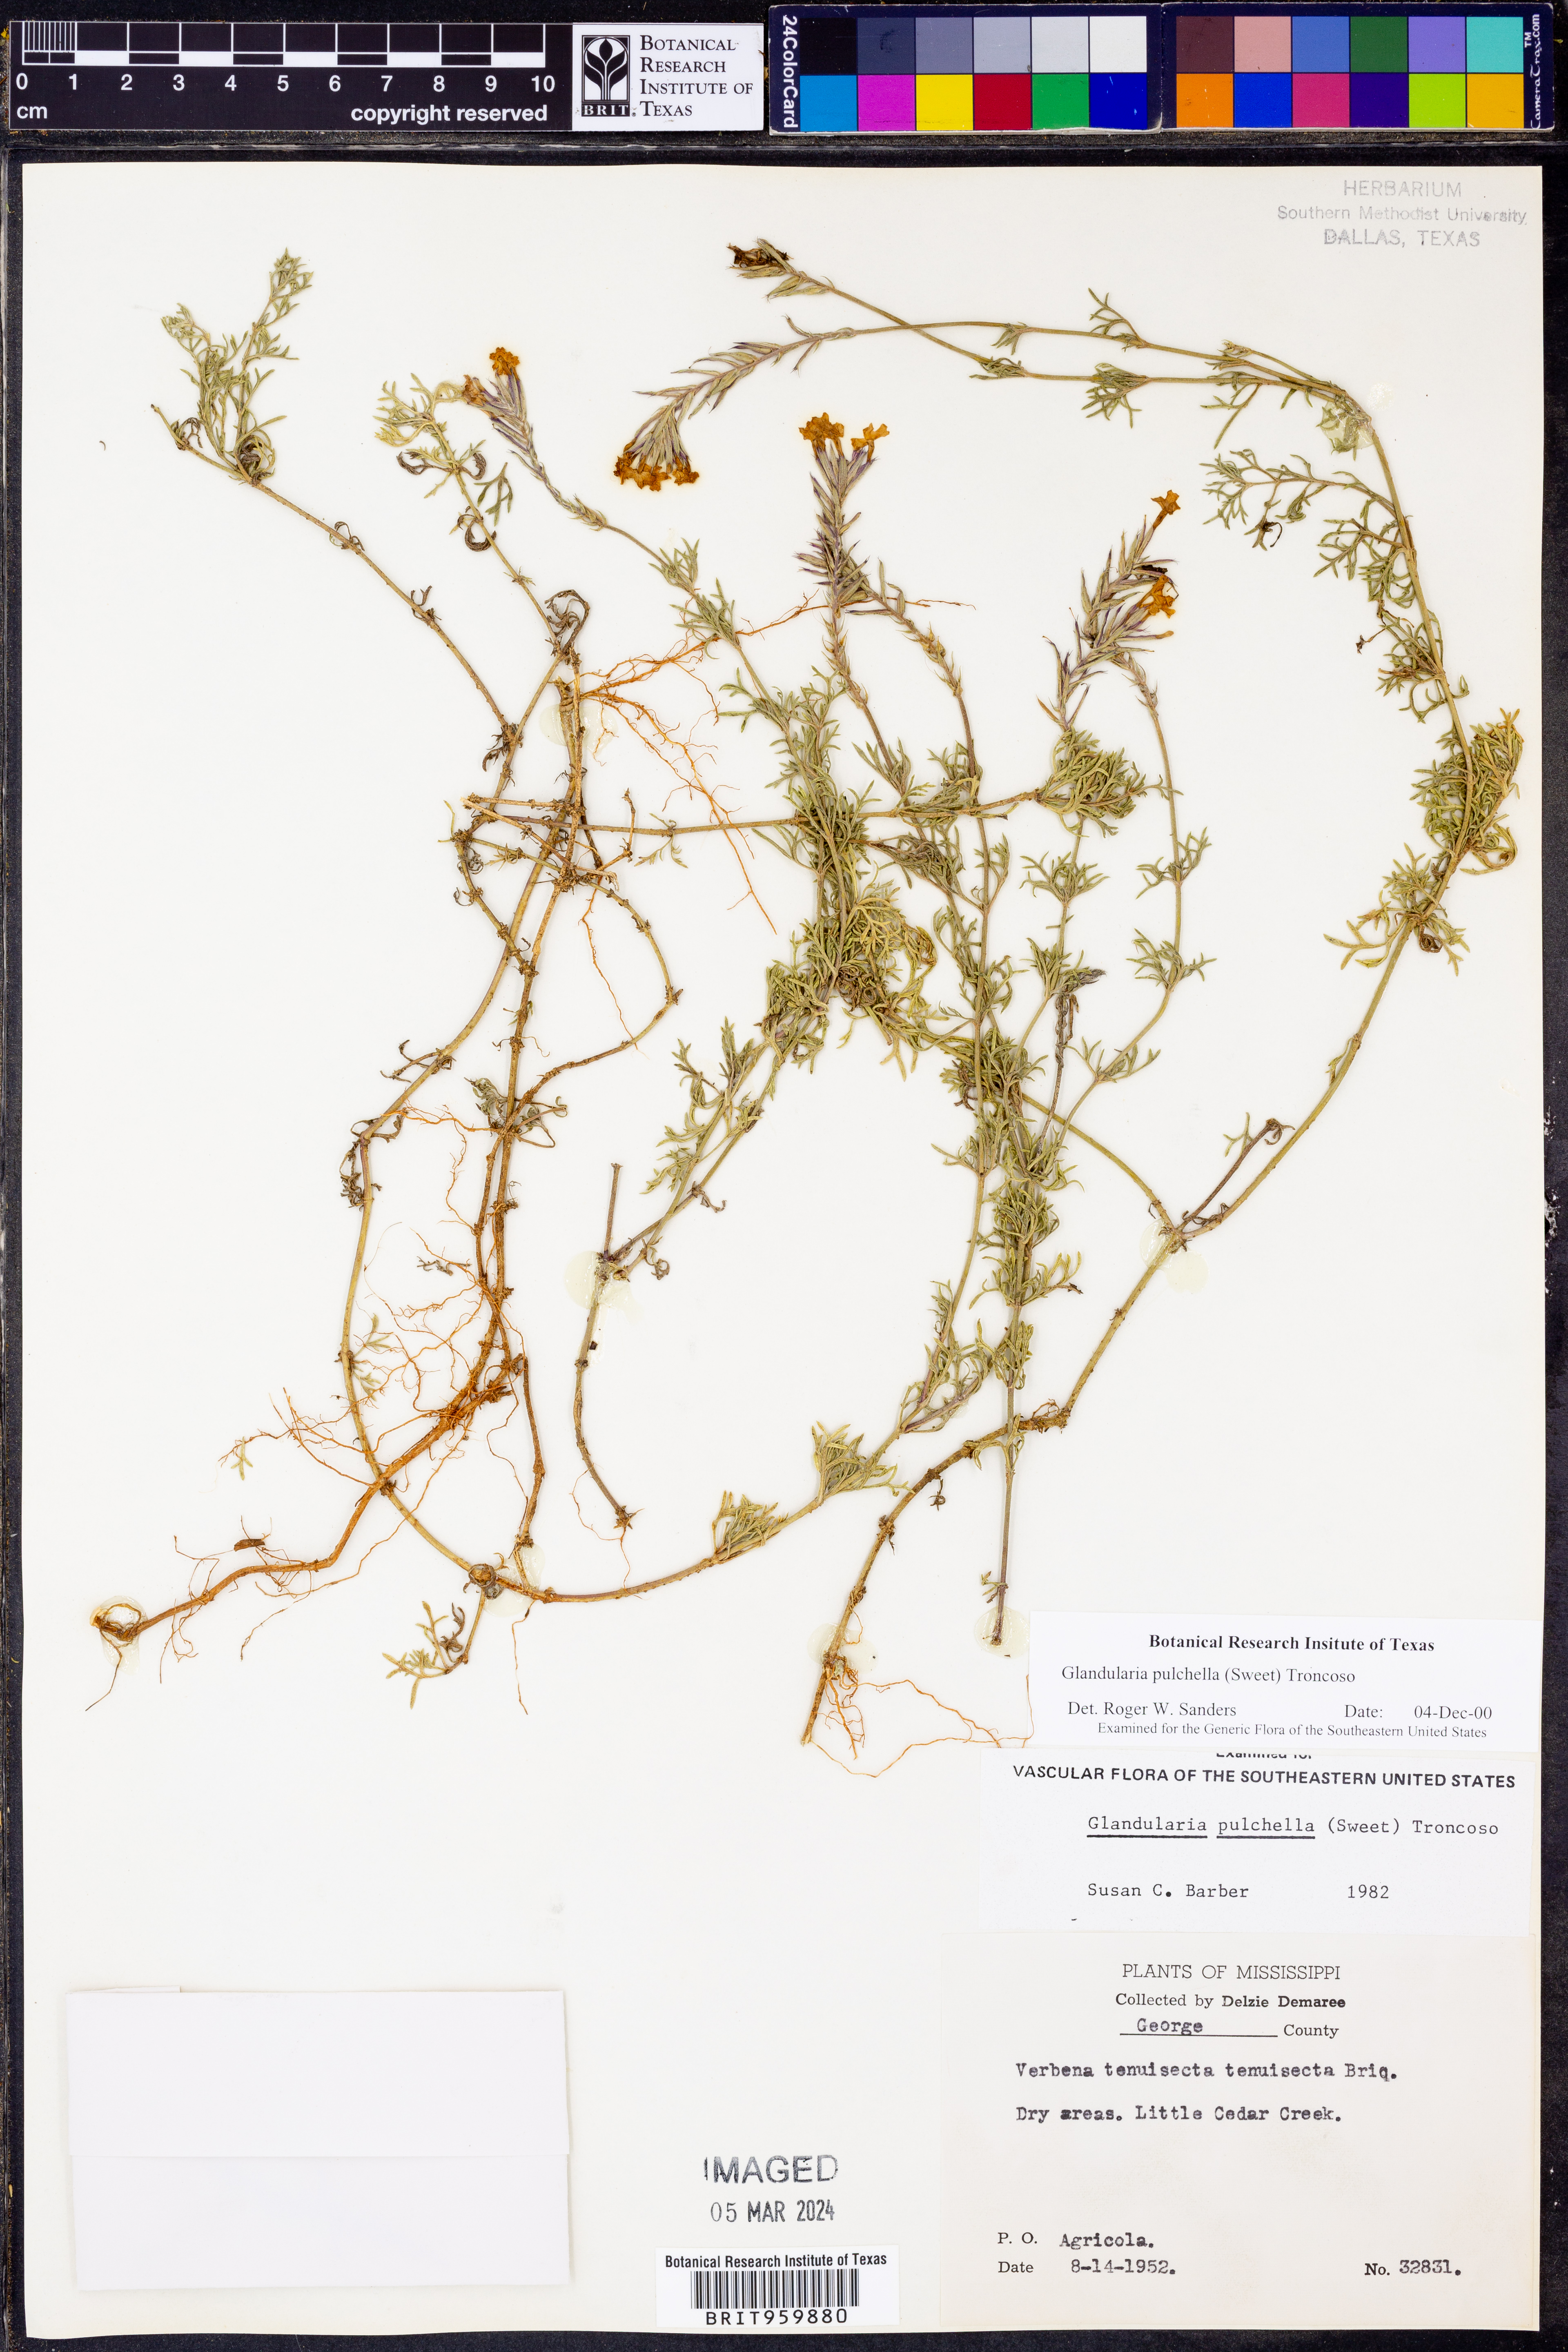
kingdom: Plantae
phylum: Tracheophyta
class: Magnoliopsida
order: Lamiales
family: Verbenaceae
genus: Verbena
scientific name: Verbena tenera
